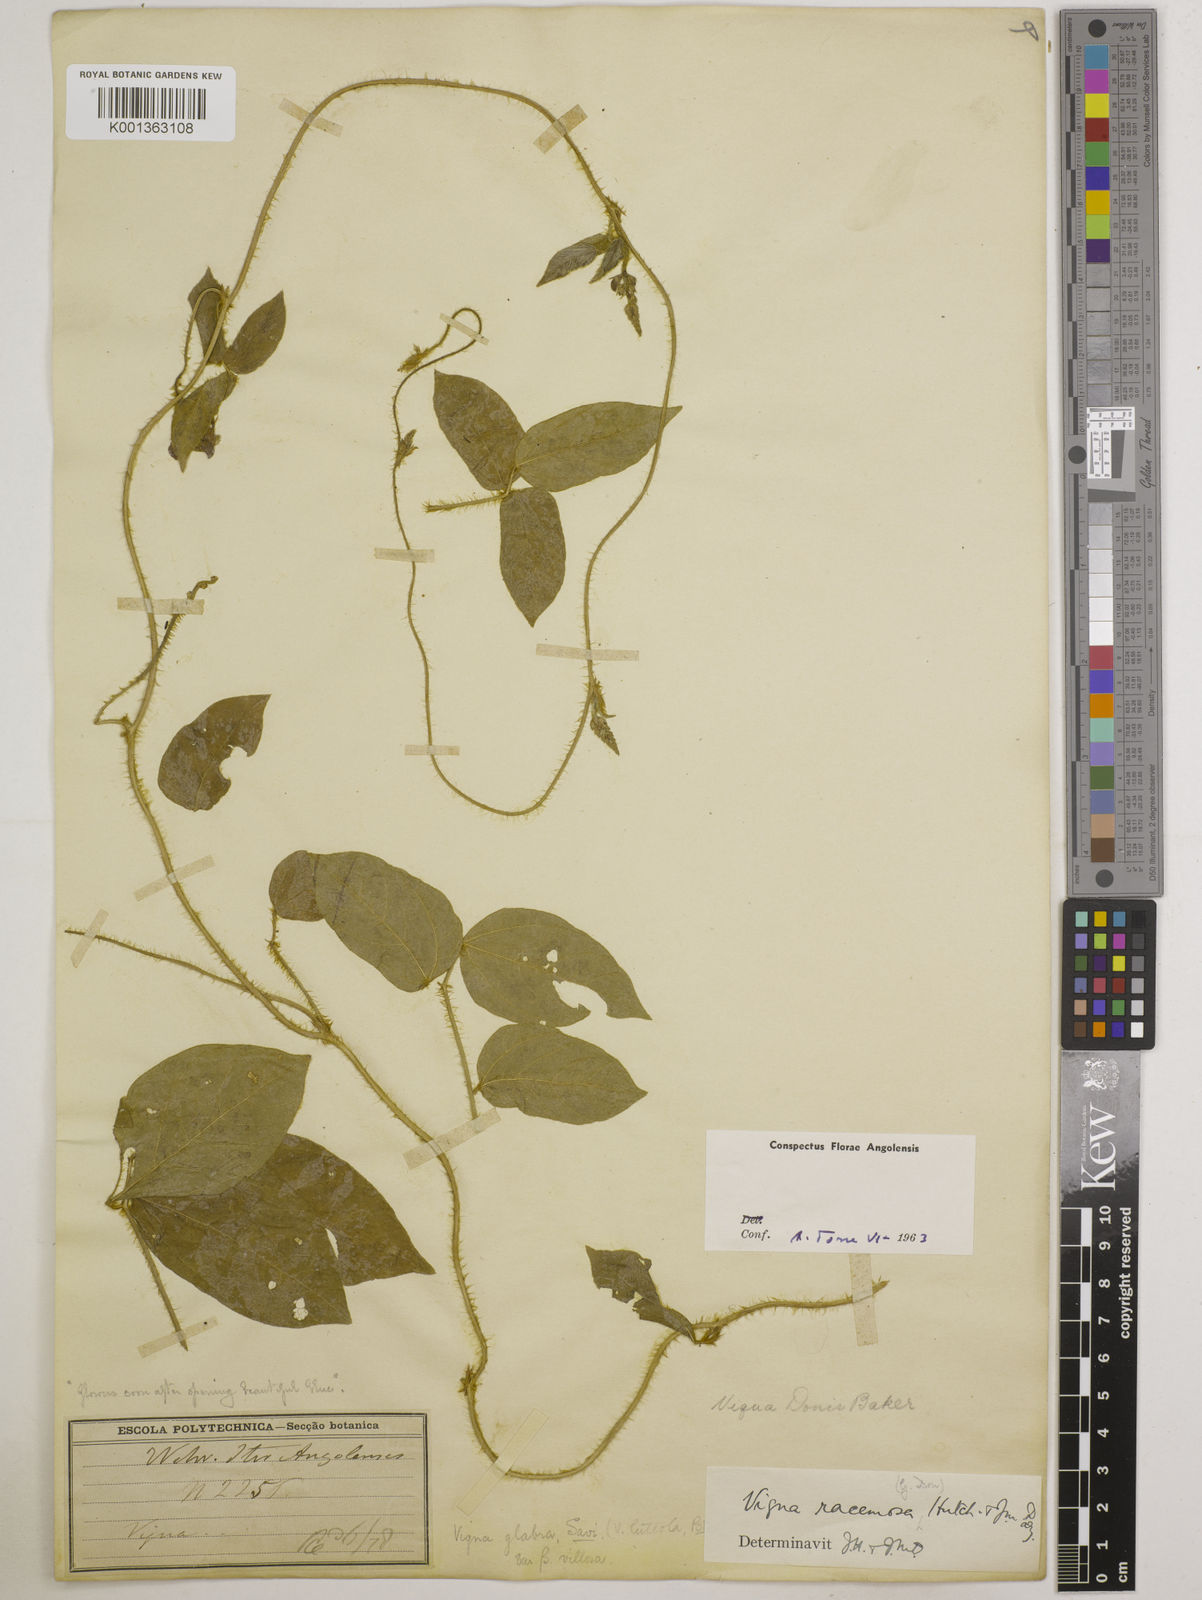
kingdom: Plantae
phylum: Tracheophyta
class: Magnoliopsida
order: Fabales
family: Fabaceae
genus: Vigna
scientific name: Vigna racemosa
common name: Beans not eaten
